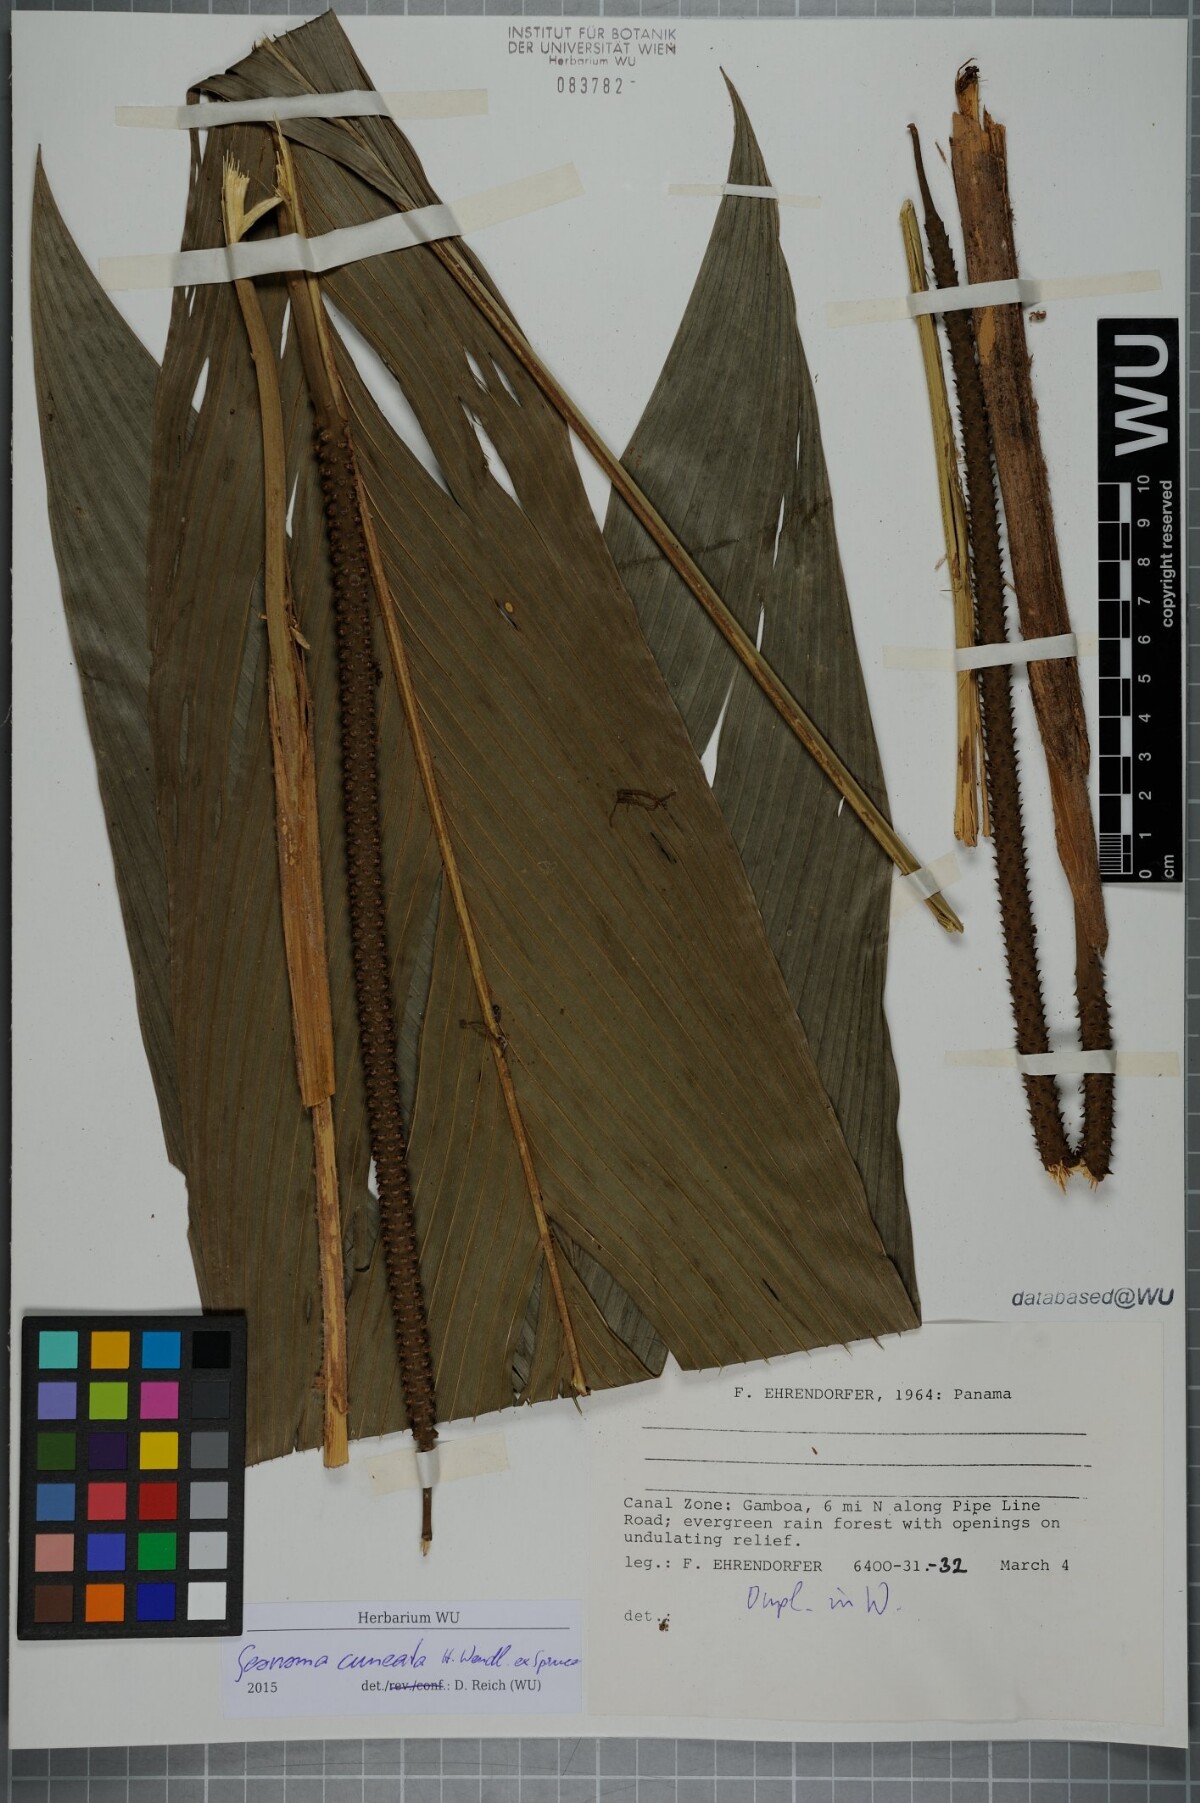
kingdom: Plantae
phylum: Tracheophyta
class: Liliopsida
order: Arecales
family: Arecaceae
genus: Geonoma
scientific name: Geonoma cuneata
